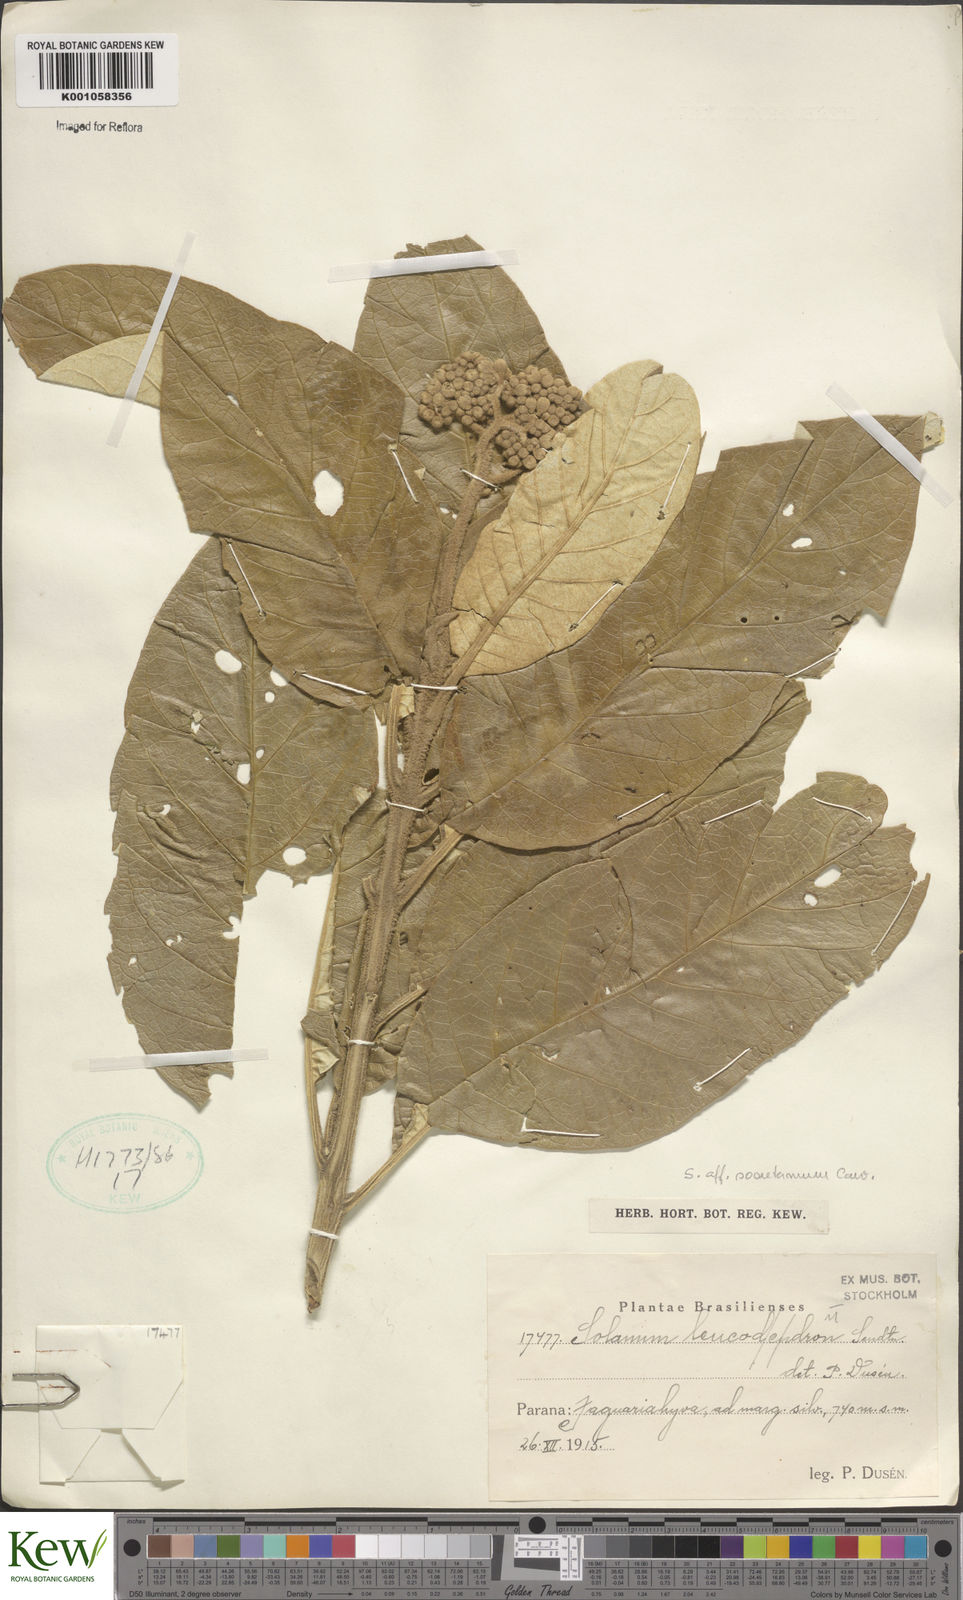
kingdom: Plantae
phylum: Tracheophyta
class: Magnoliopsida
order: Solanales
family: Solanaceae
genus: Solanum
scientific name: Solanum leucodendron
